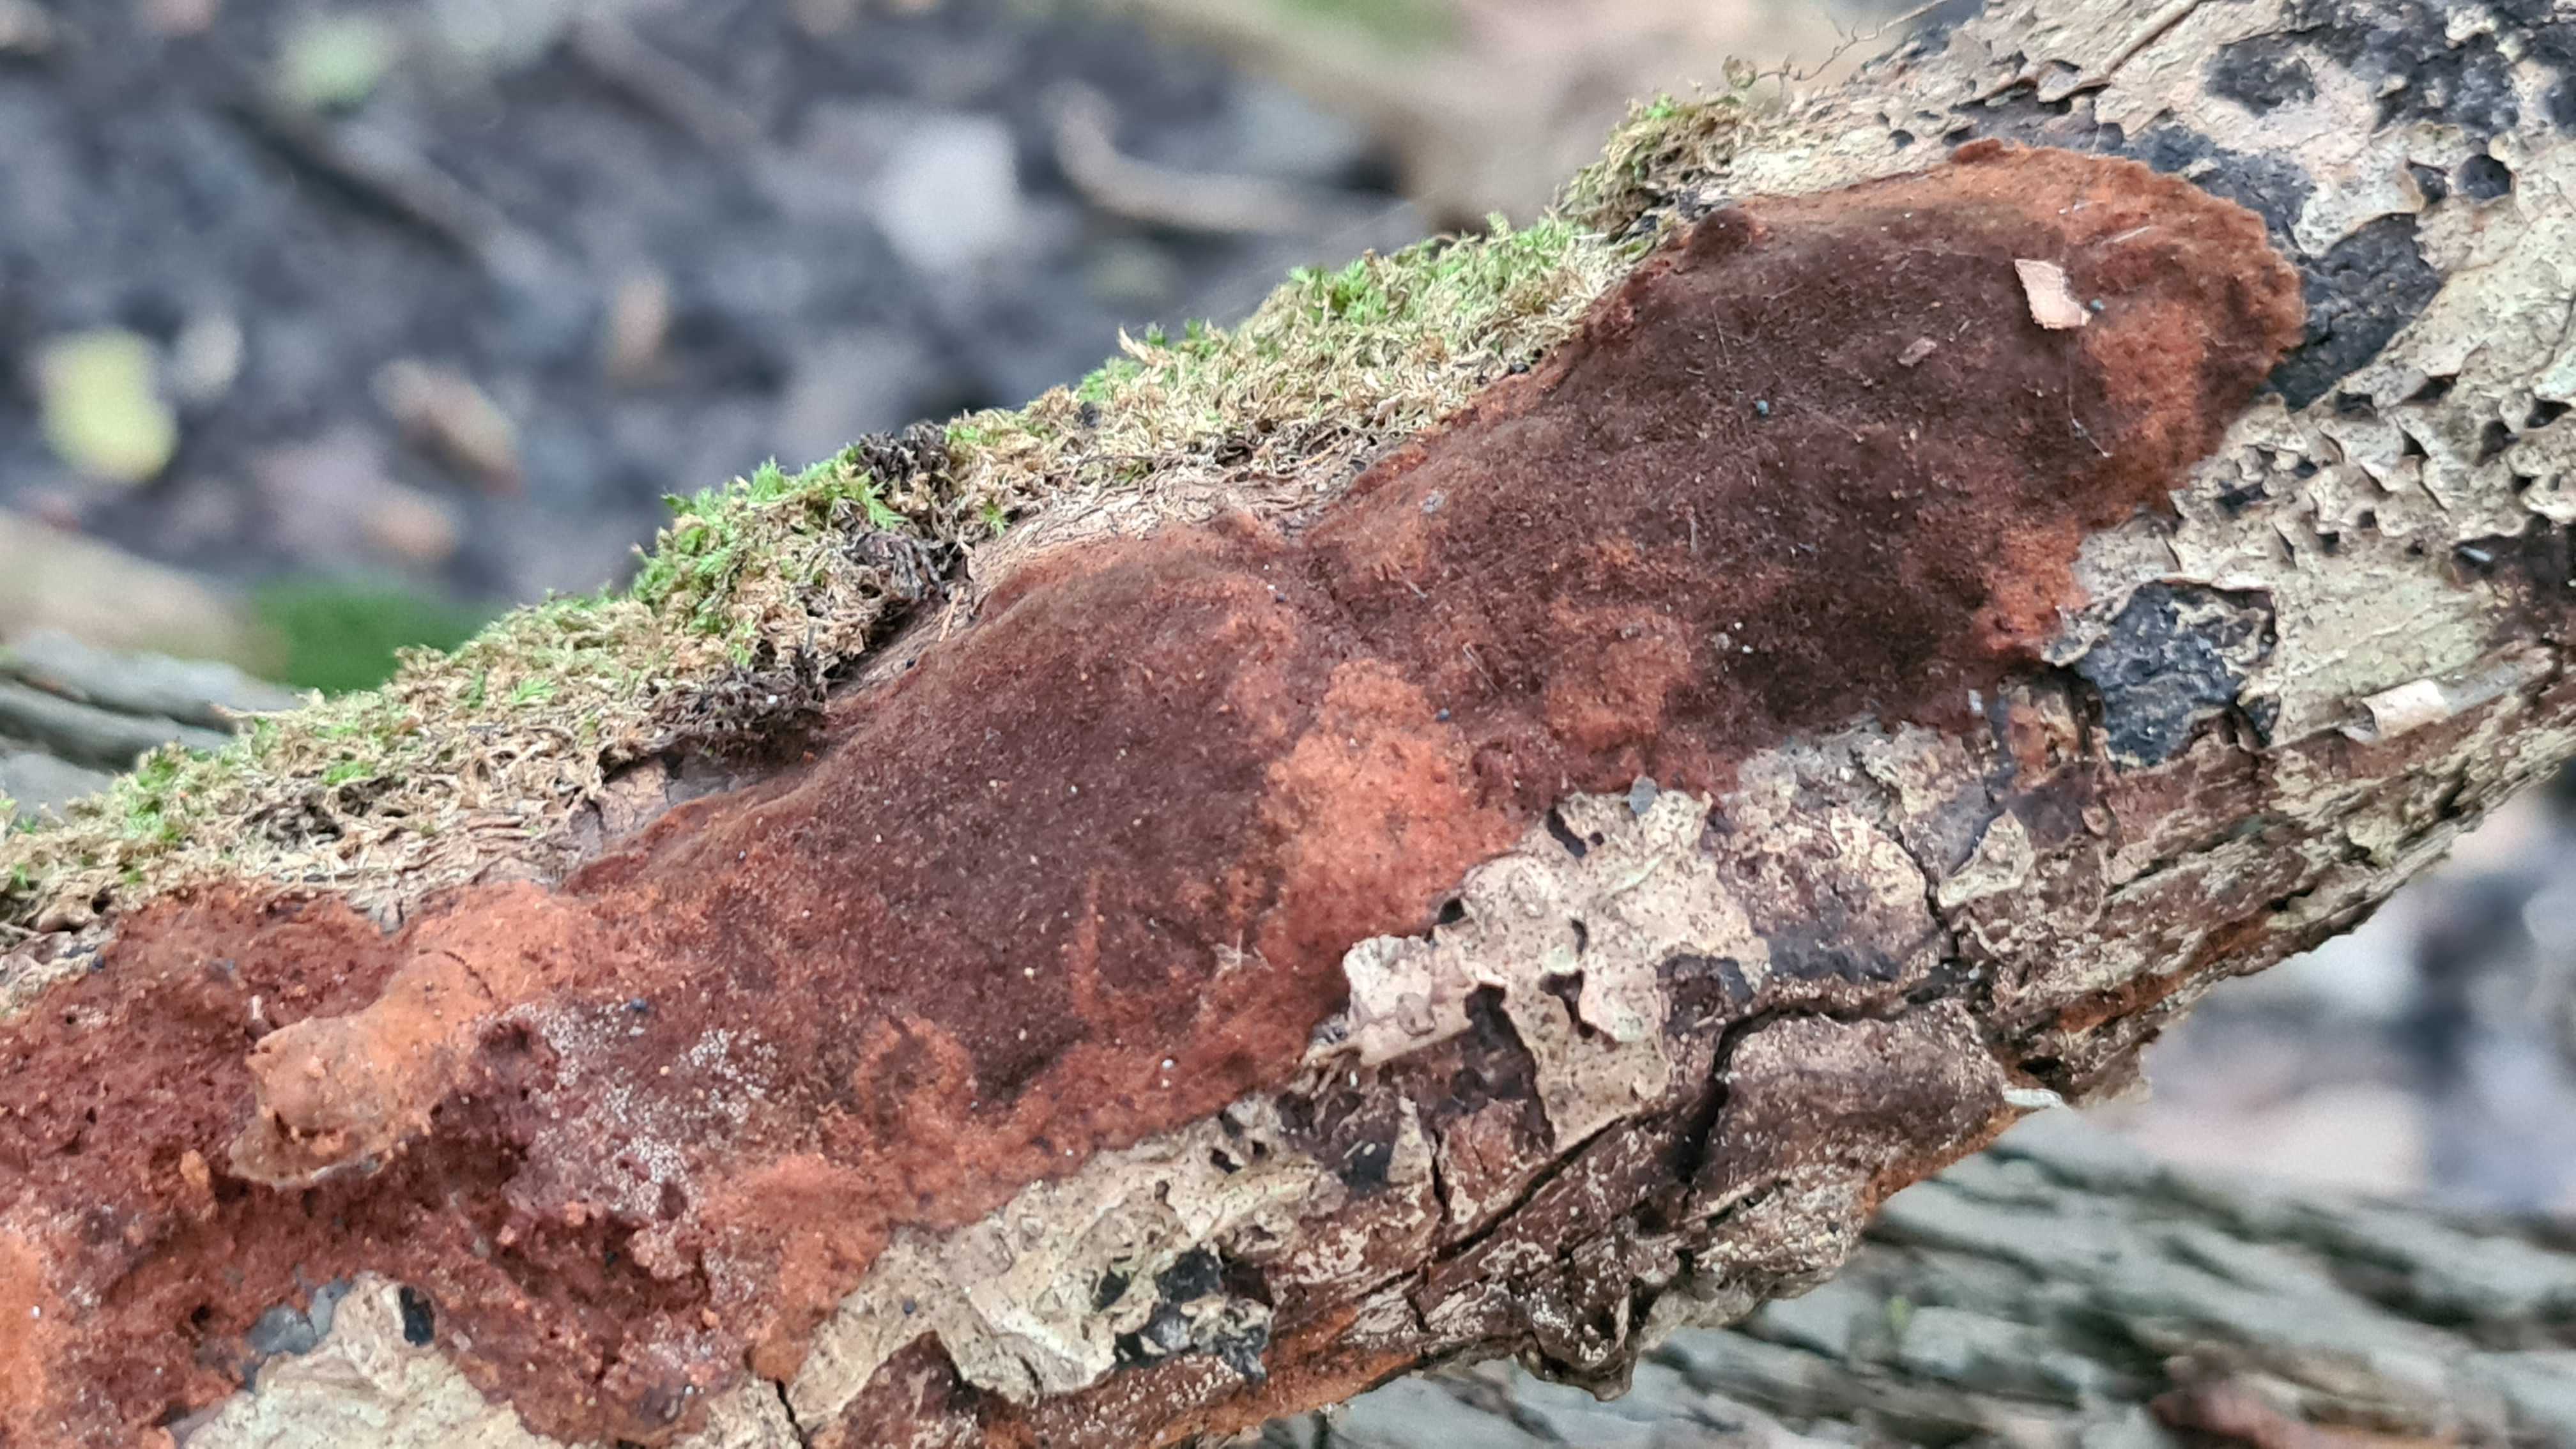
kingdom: Fungi
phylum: Basidiomycota
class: Agaricomycetes
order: Hymenochaetales
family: Hymenochaetaceae
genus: Fuscoporia
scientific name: Fuscoporia
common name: Ildporesvamp
